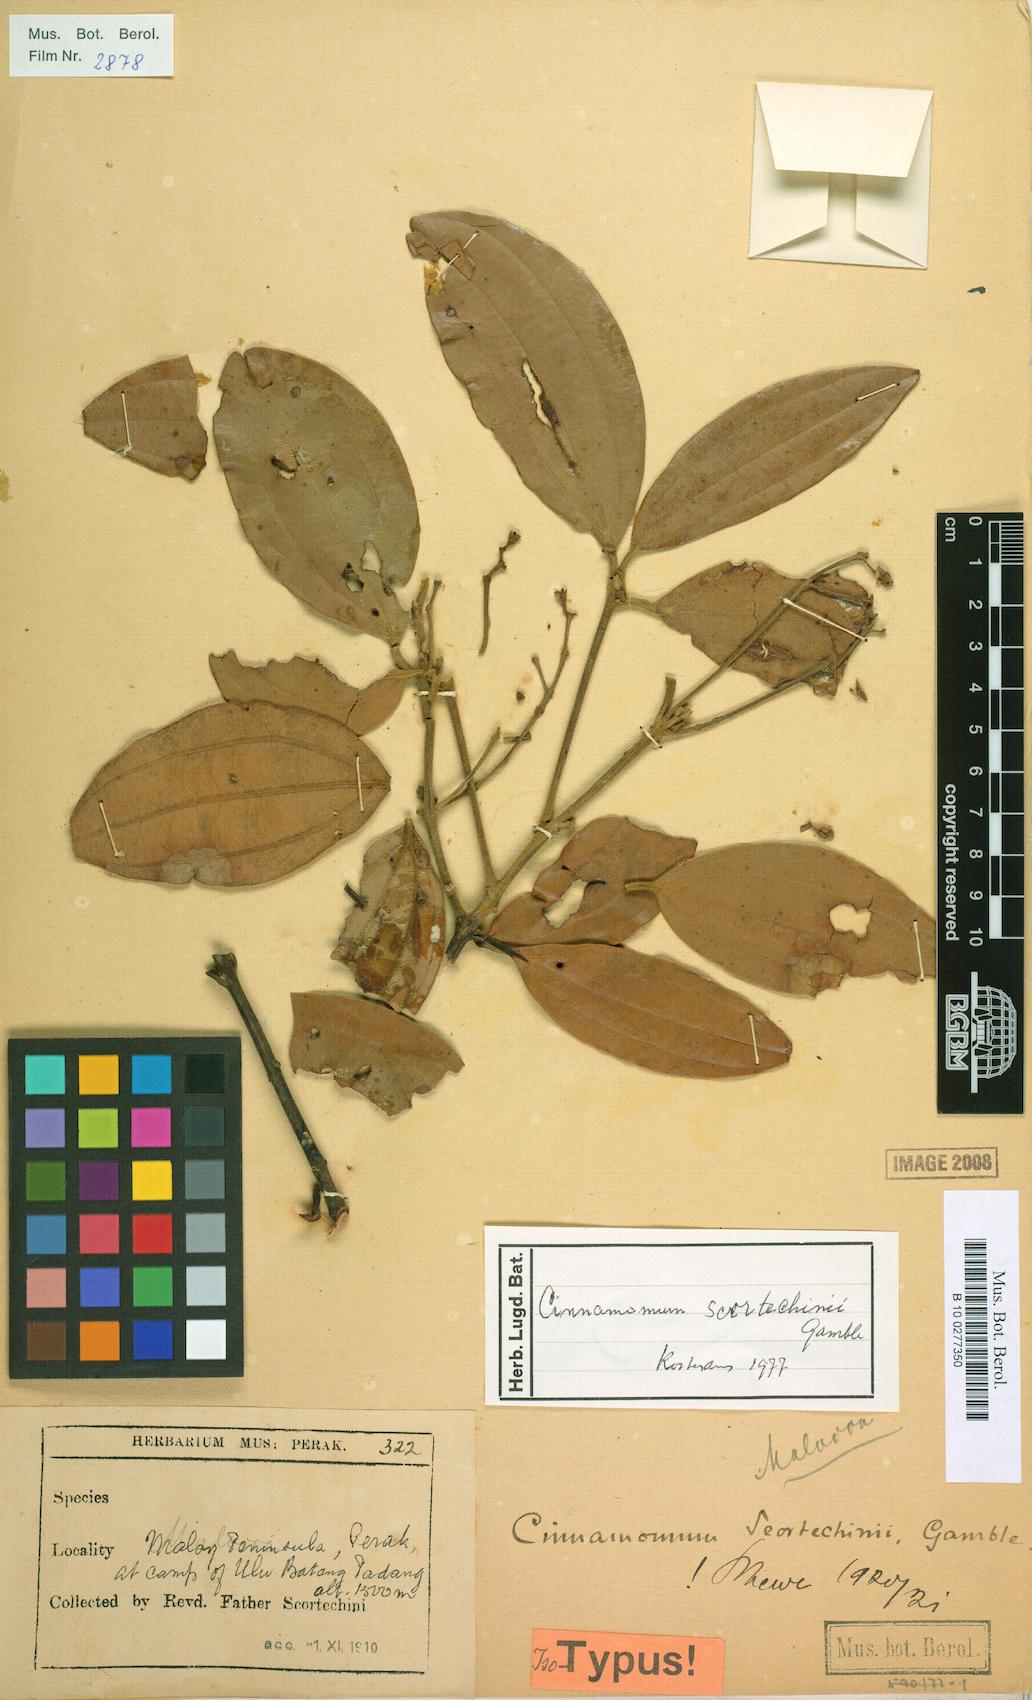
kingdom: Plantae
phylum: Tracheophyta
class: Magnoliopsida
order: Laurales
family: Lauraceae
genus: Cinnamomum
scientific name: Cinnamomum scortechinii
